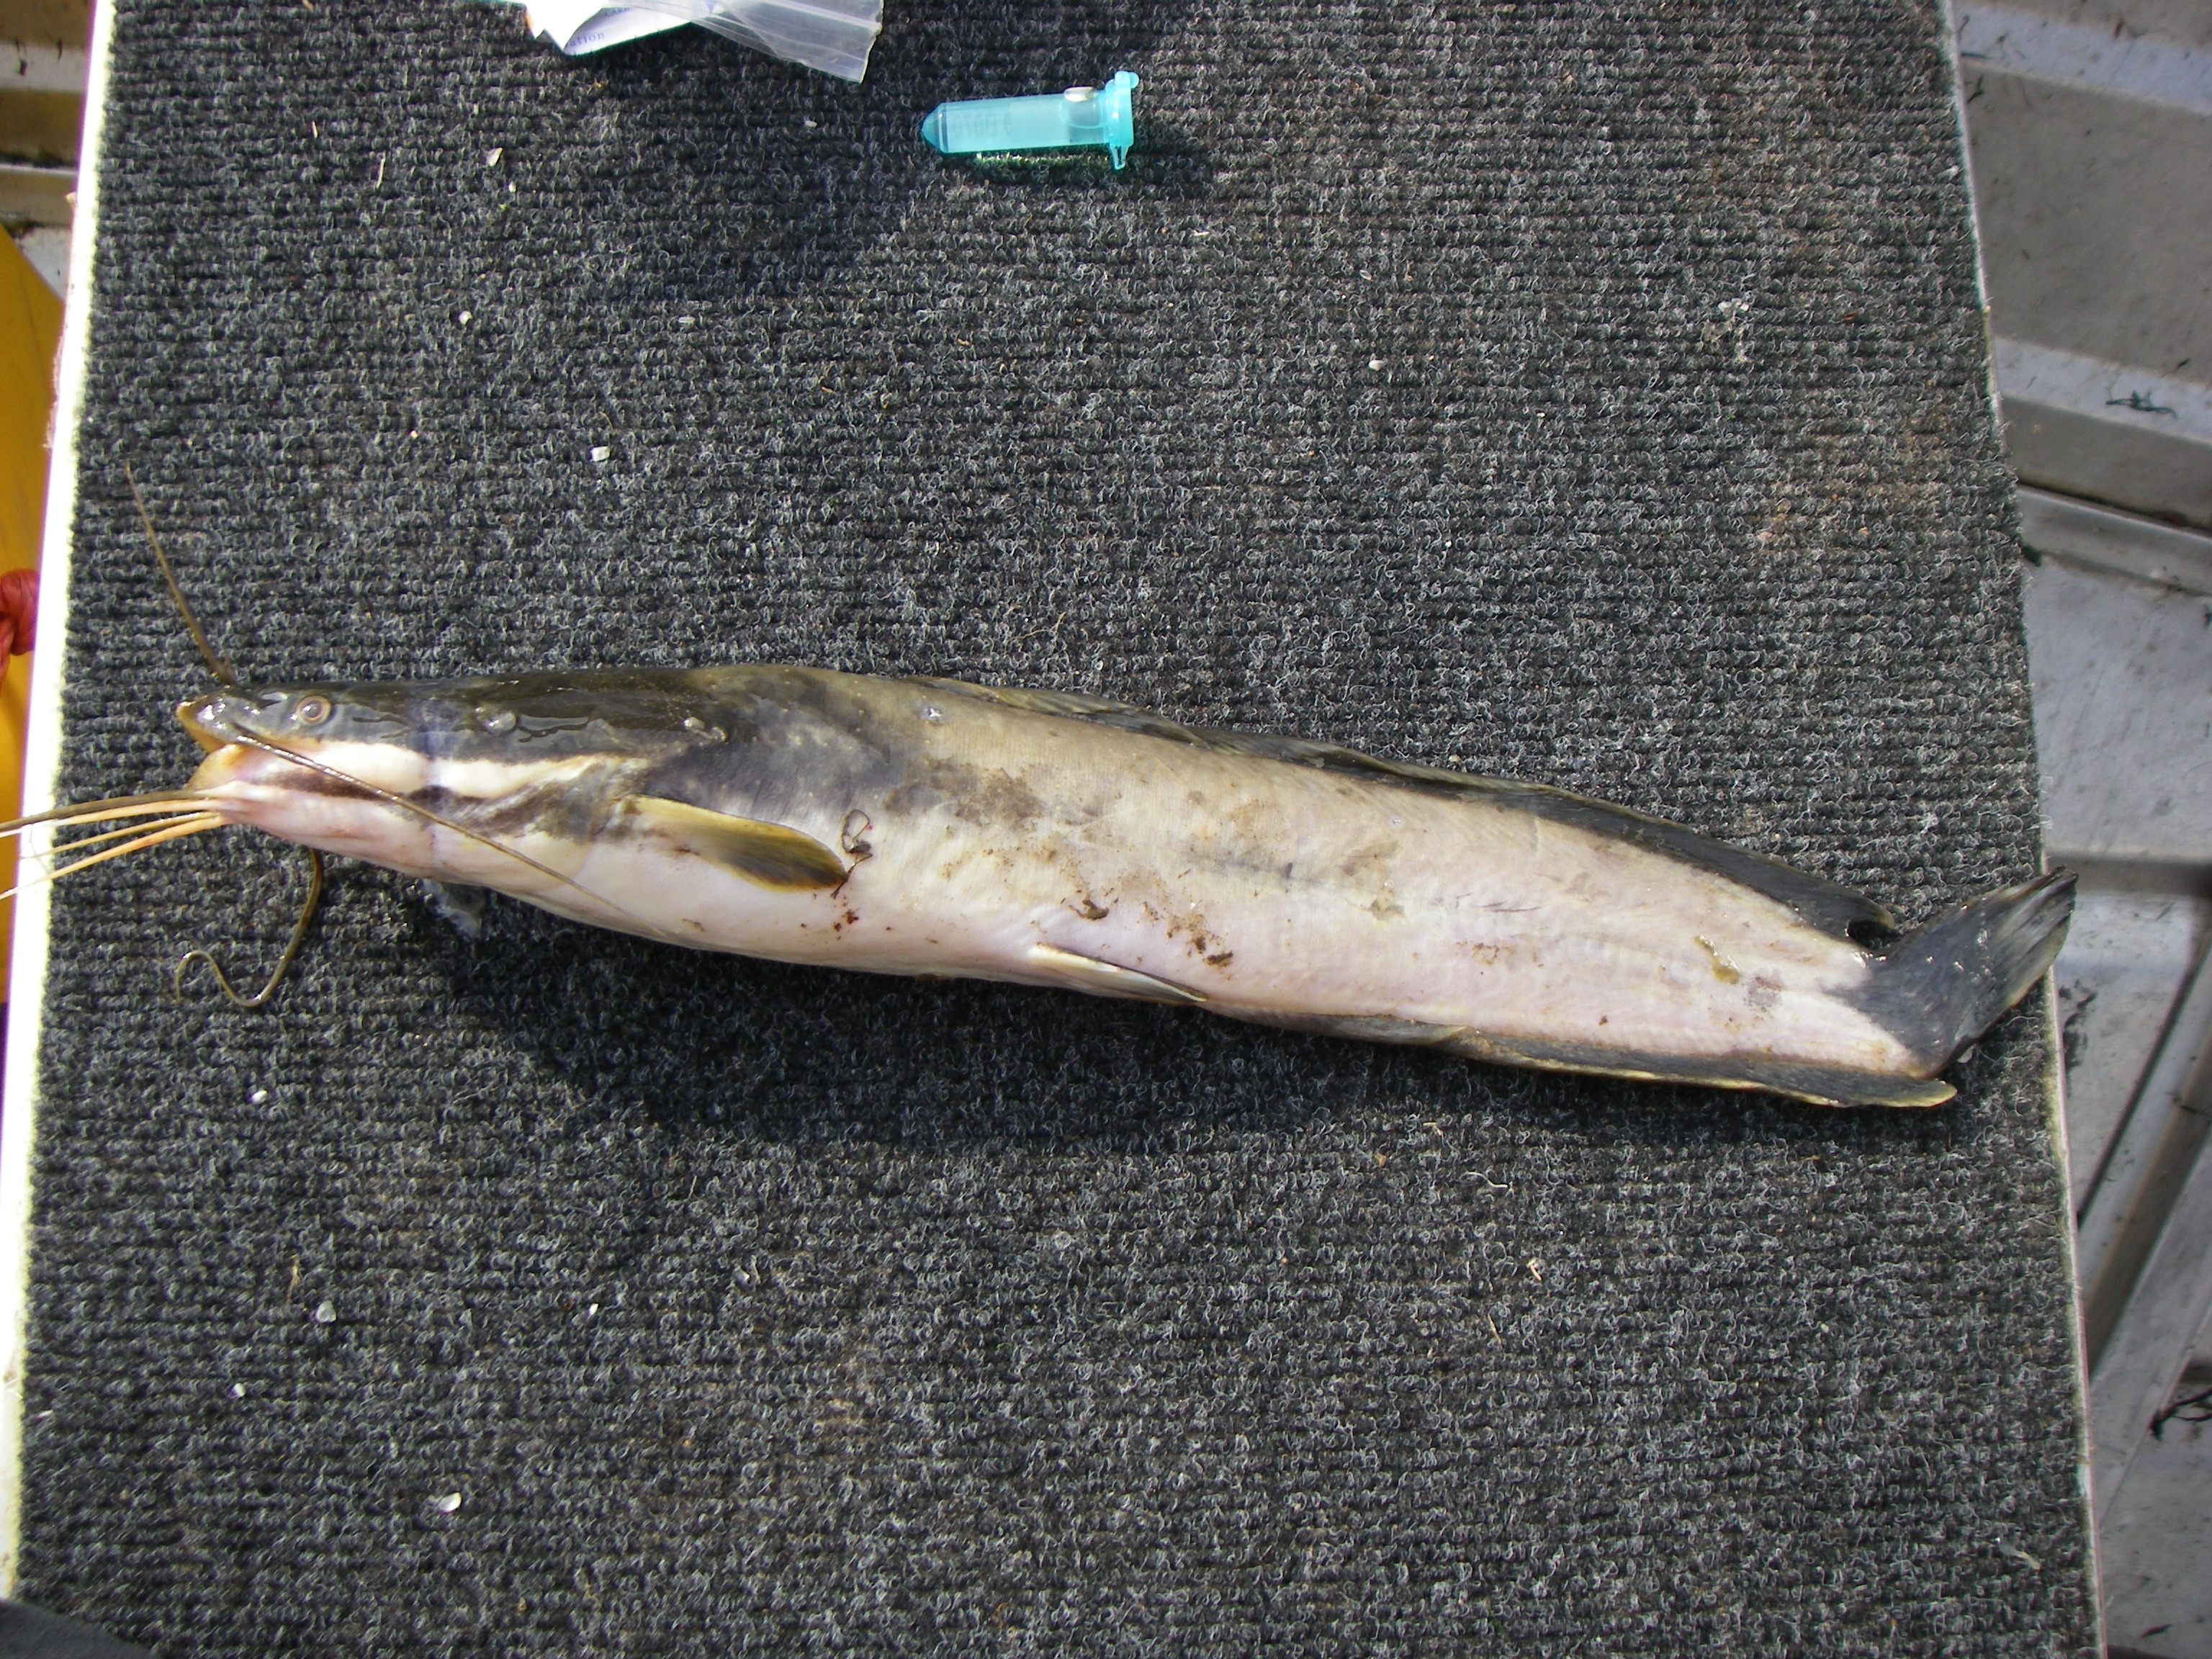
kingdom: Animalia
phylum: Chordata
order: Siluriformes
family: Clariidae
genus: Clarias
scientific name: Clarias gariepinus
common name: African catfish
